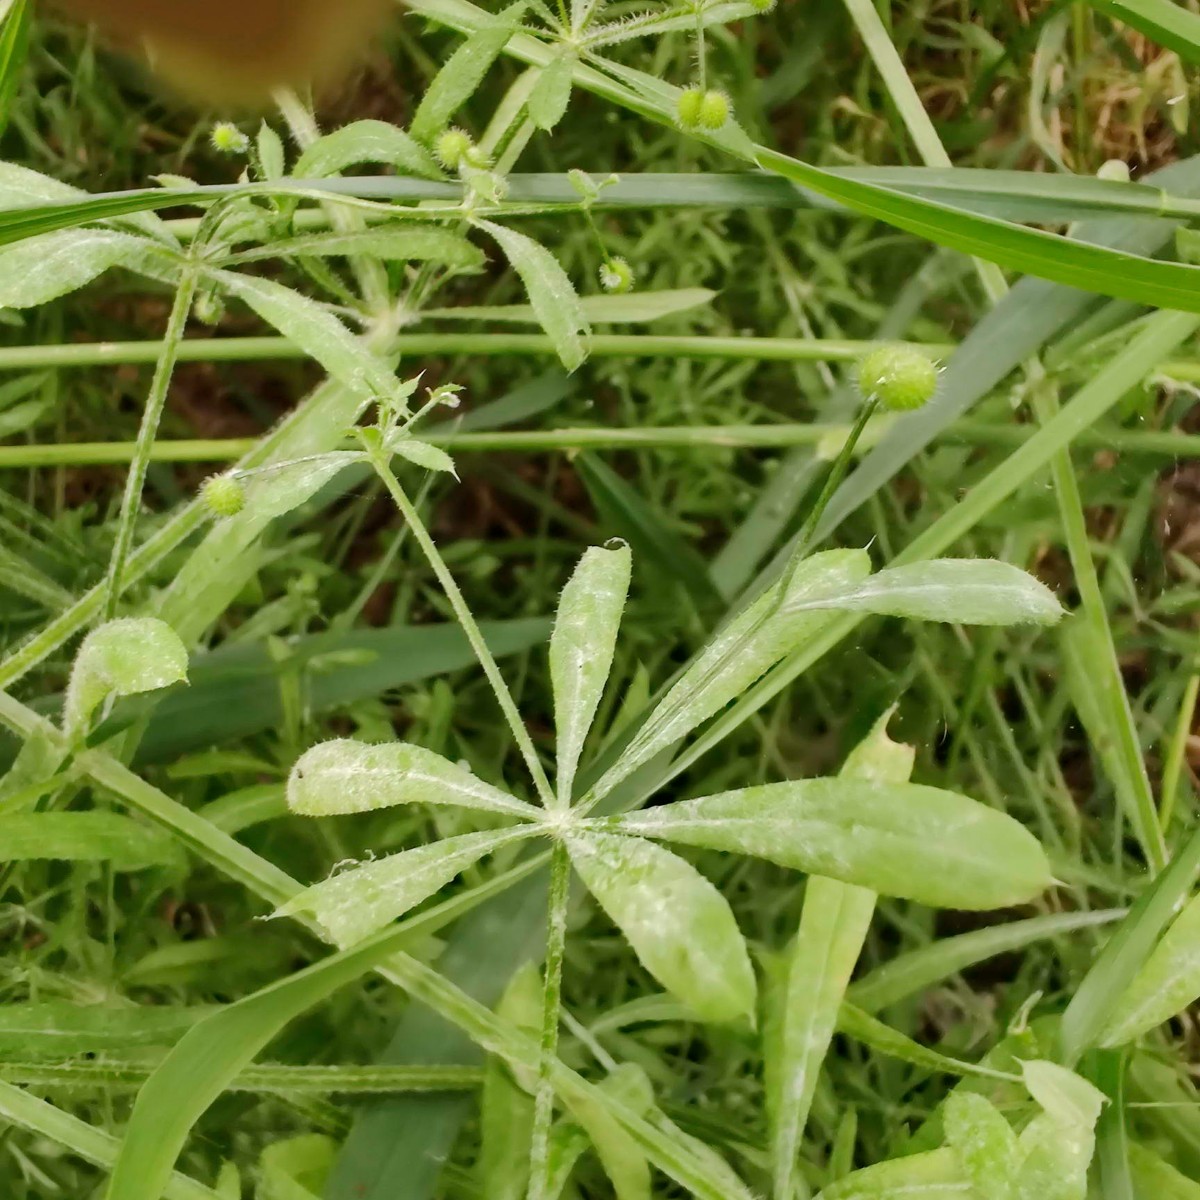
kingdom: Fungi
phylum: Ascomycota
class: Leotiomycetes
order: Helotiales
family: Erysiphaceae
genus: Neoerysiphe
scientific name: Neoerysiphe galii
